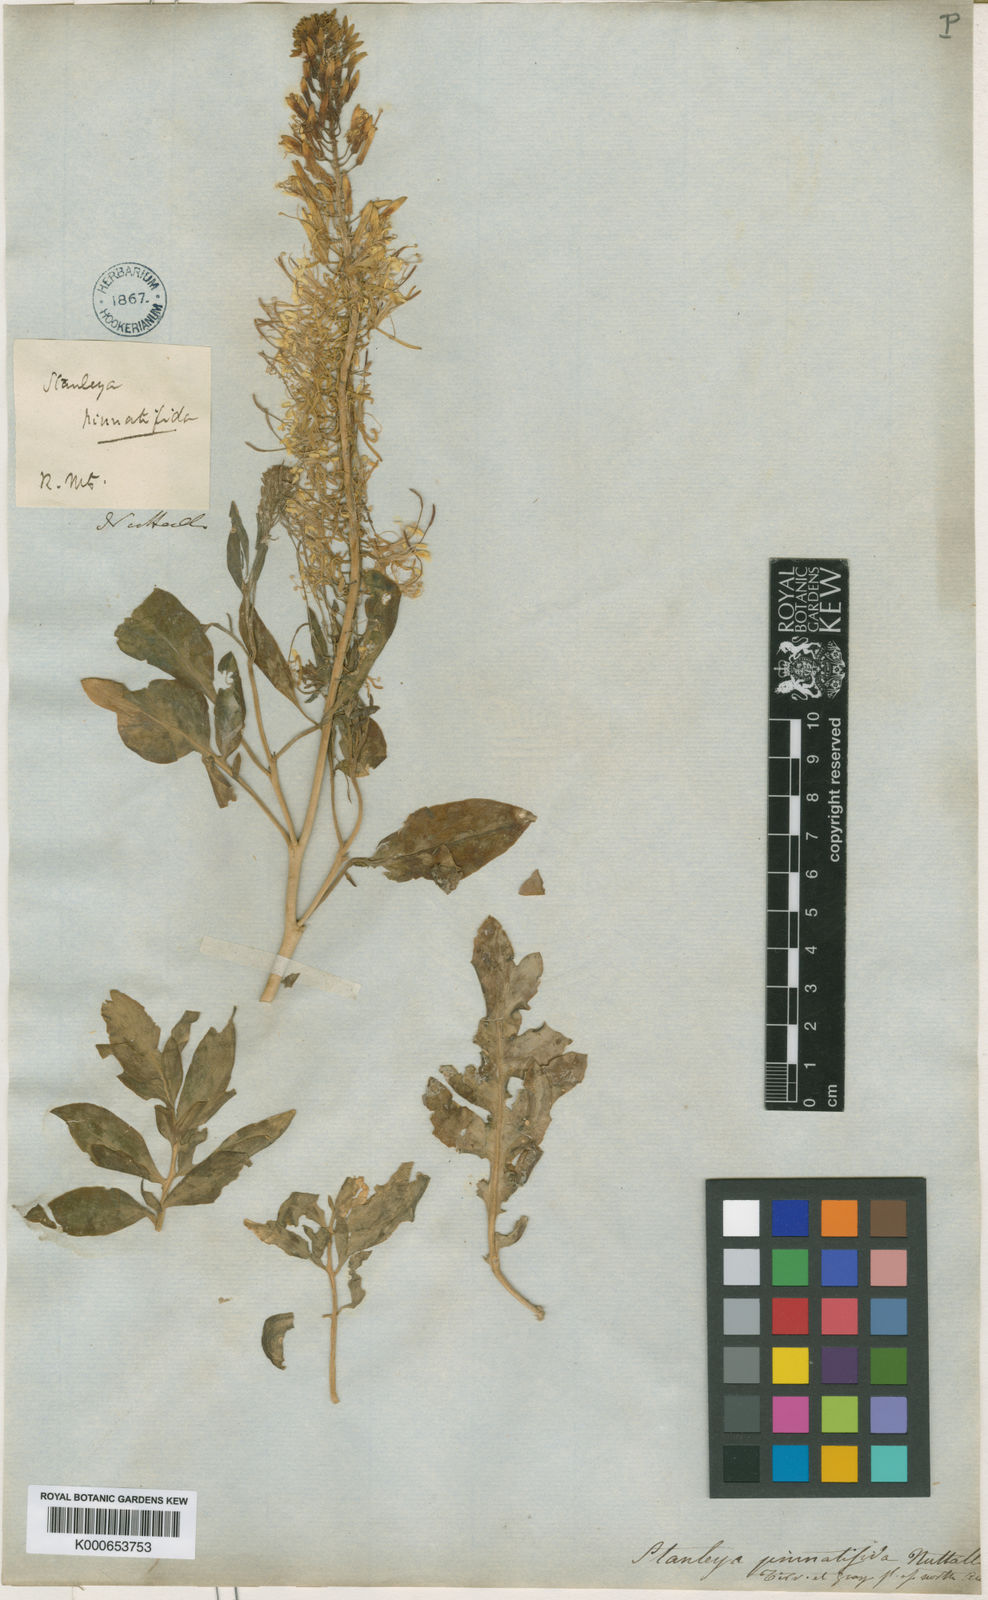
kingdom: Plantae
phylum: Tracheophyta
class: Magnoliopsida
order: Brassicales
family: Brassicaceae
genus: Stanleya
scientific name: Stanleya pinnata
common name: Prince's-plume
